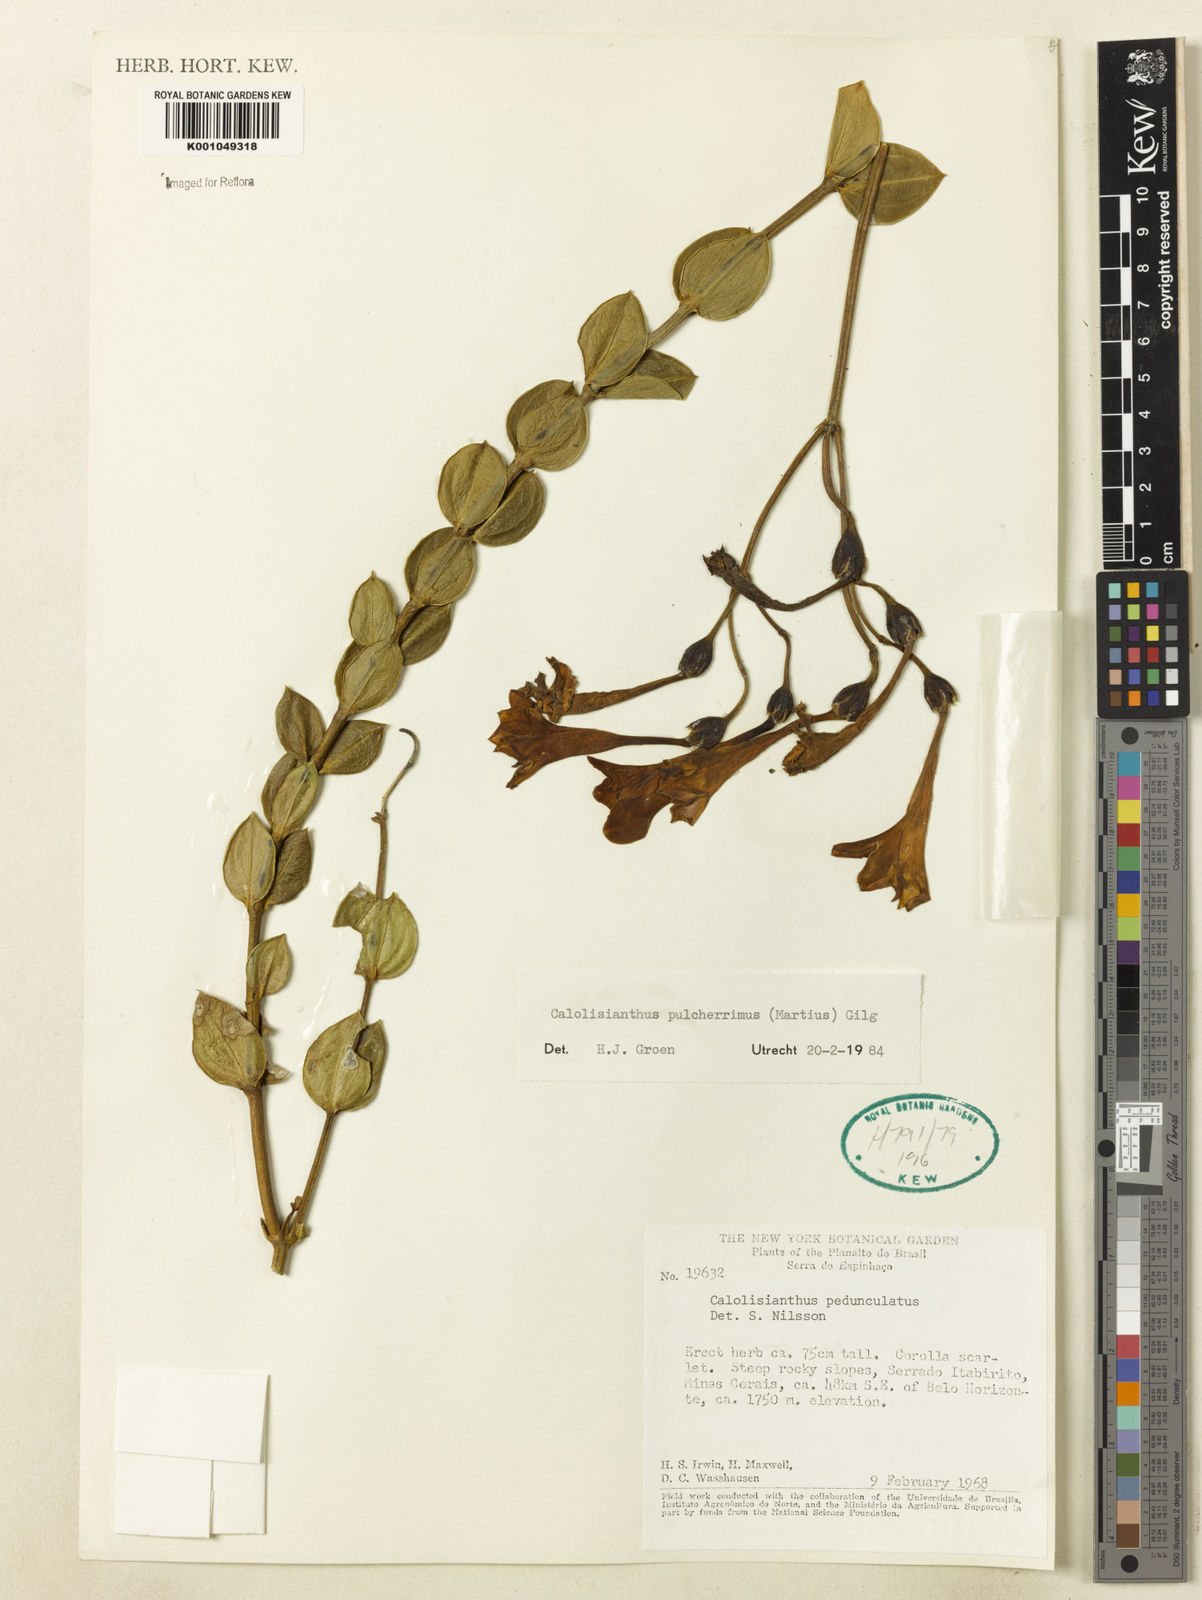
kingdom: Plantae
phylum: Tracheophyta
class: Magnoliopsida
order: Gentianales
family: Gentianaceae
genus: Calolisianthus
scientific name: Calolisianthus pulcherrimus
